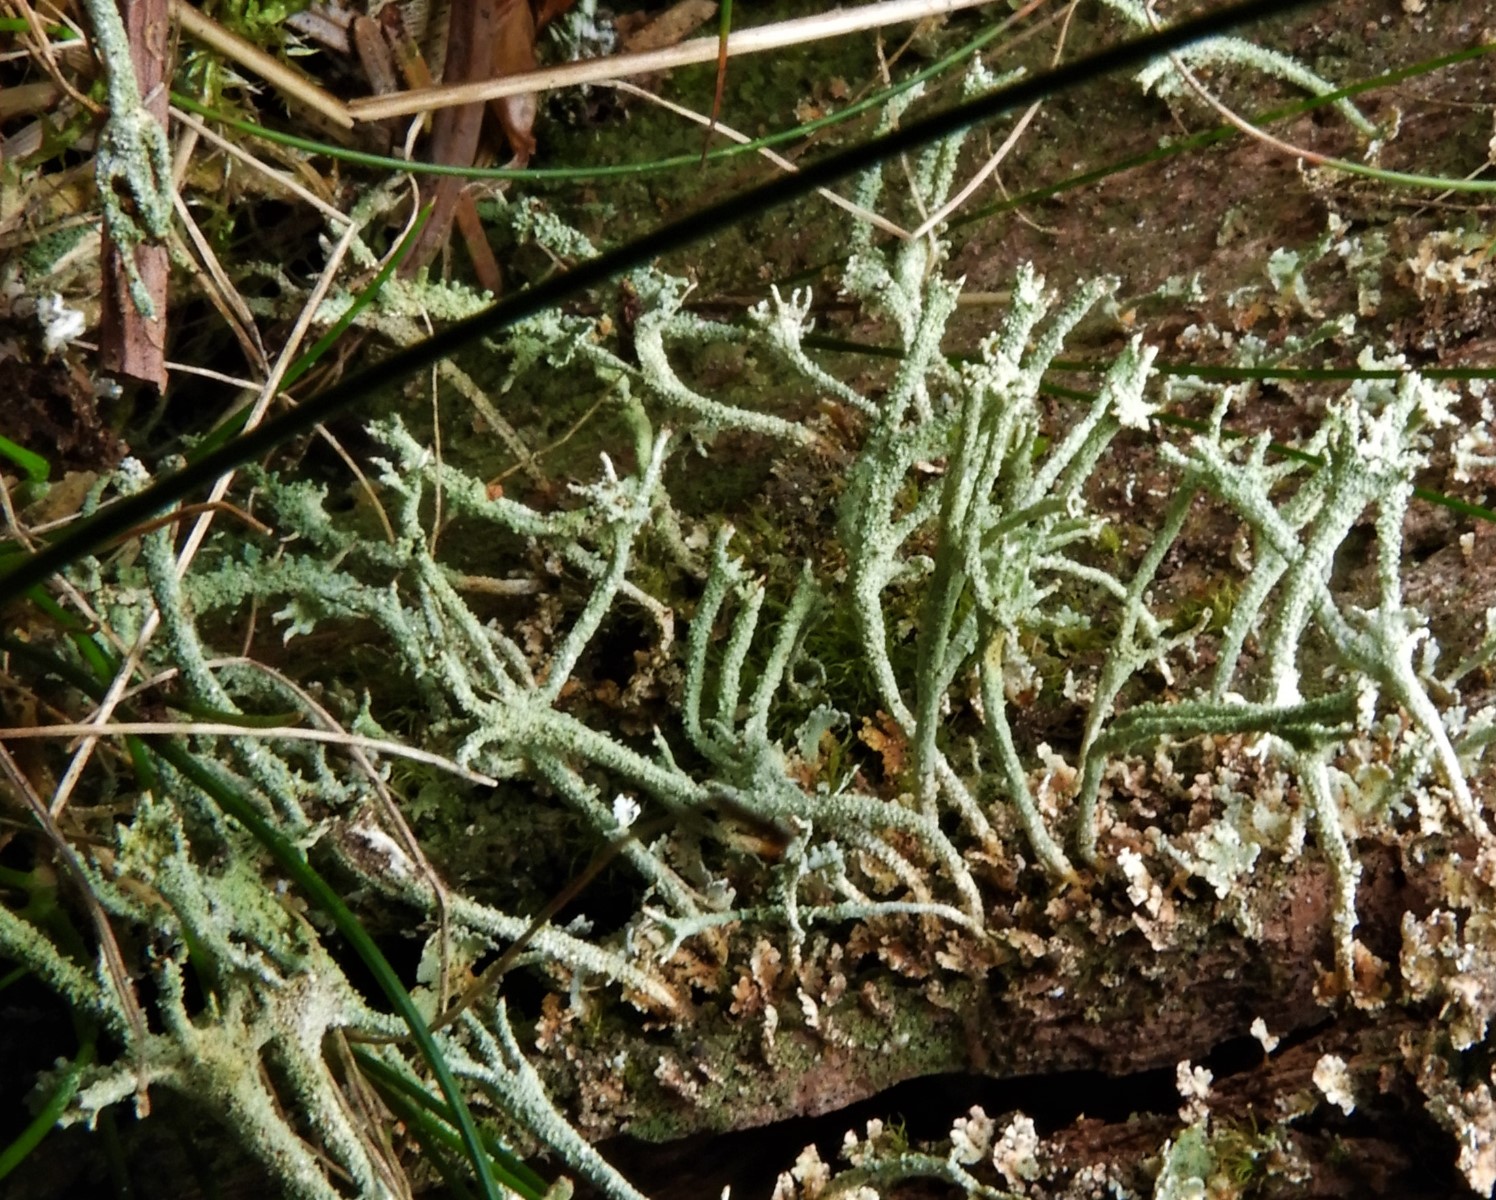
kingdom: Fungi
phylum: Ascomycota
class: Lecanoromycetes
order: Lecanorales
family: Cladoniaceae
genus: Cladonia
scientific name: Cladonia polydactyla
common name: vifte-bægerlav
